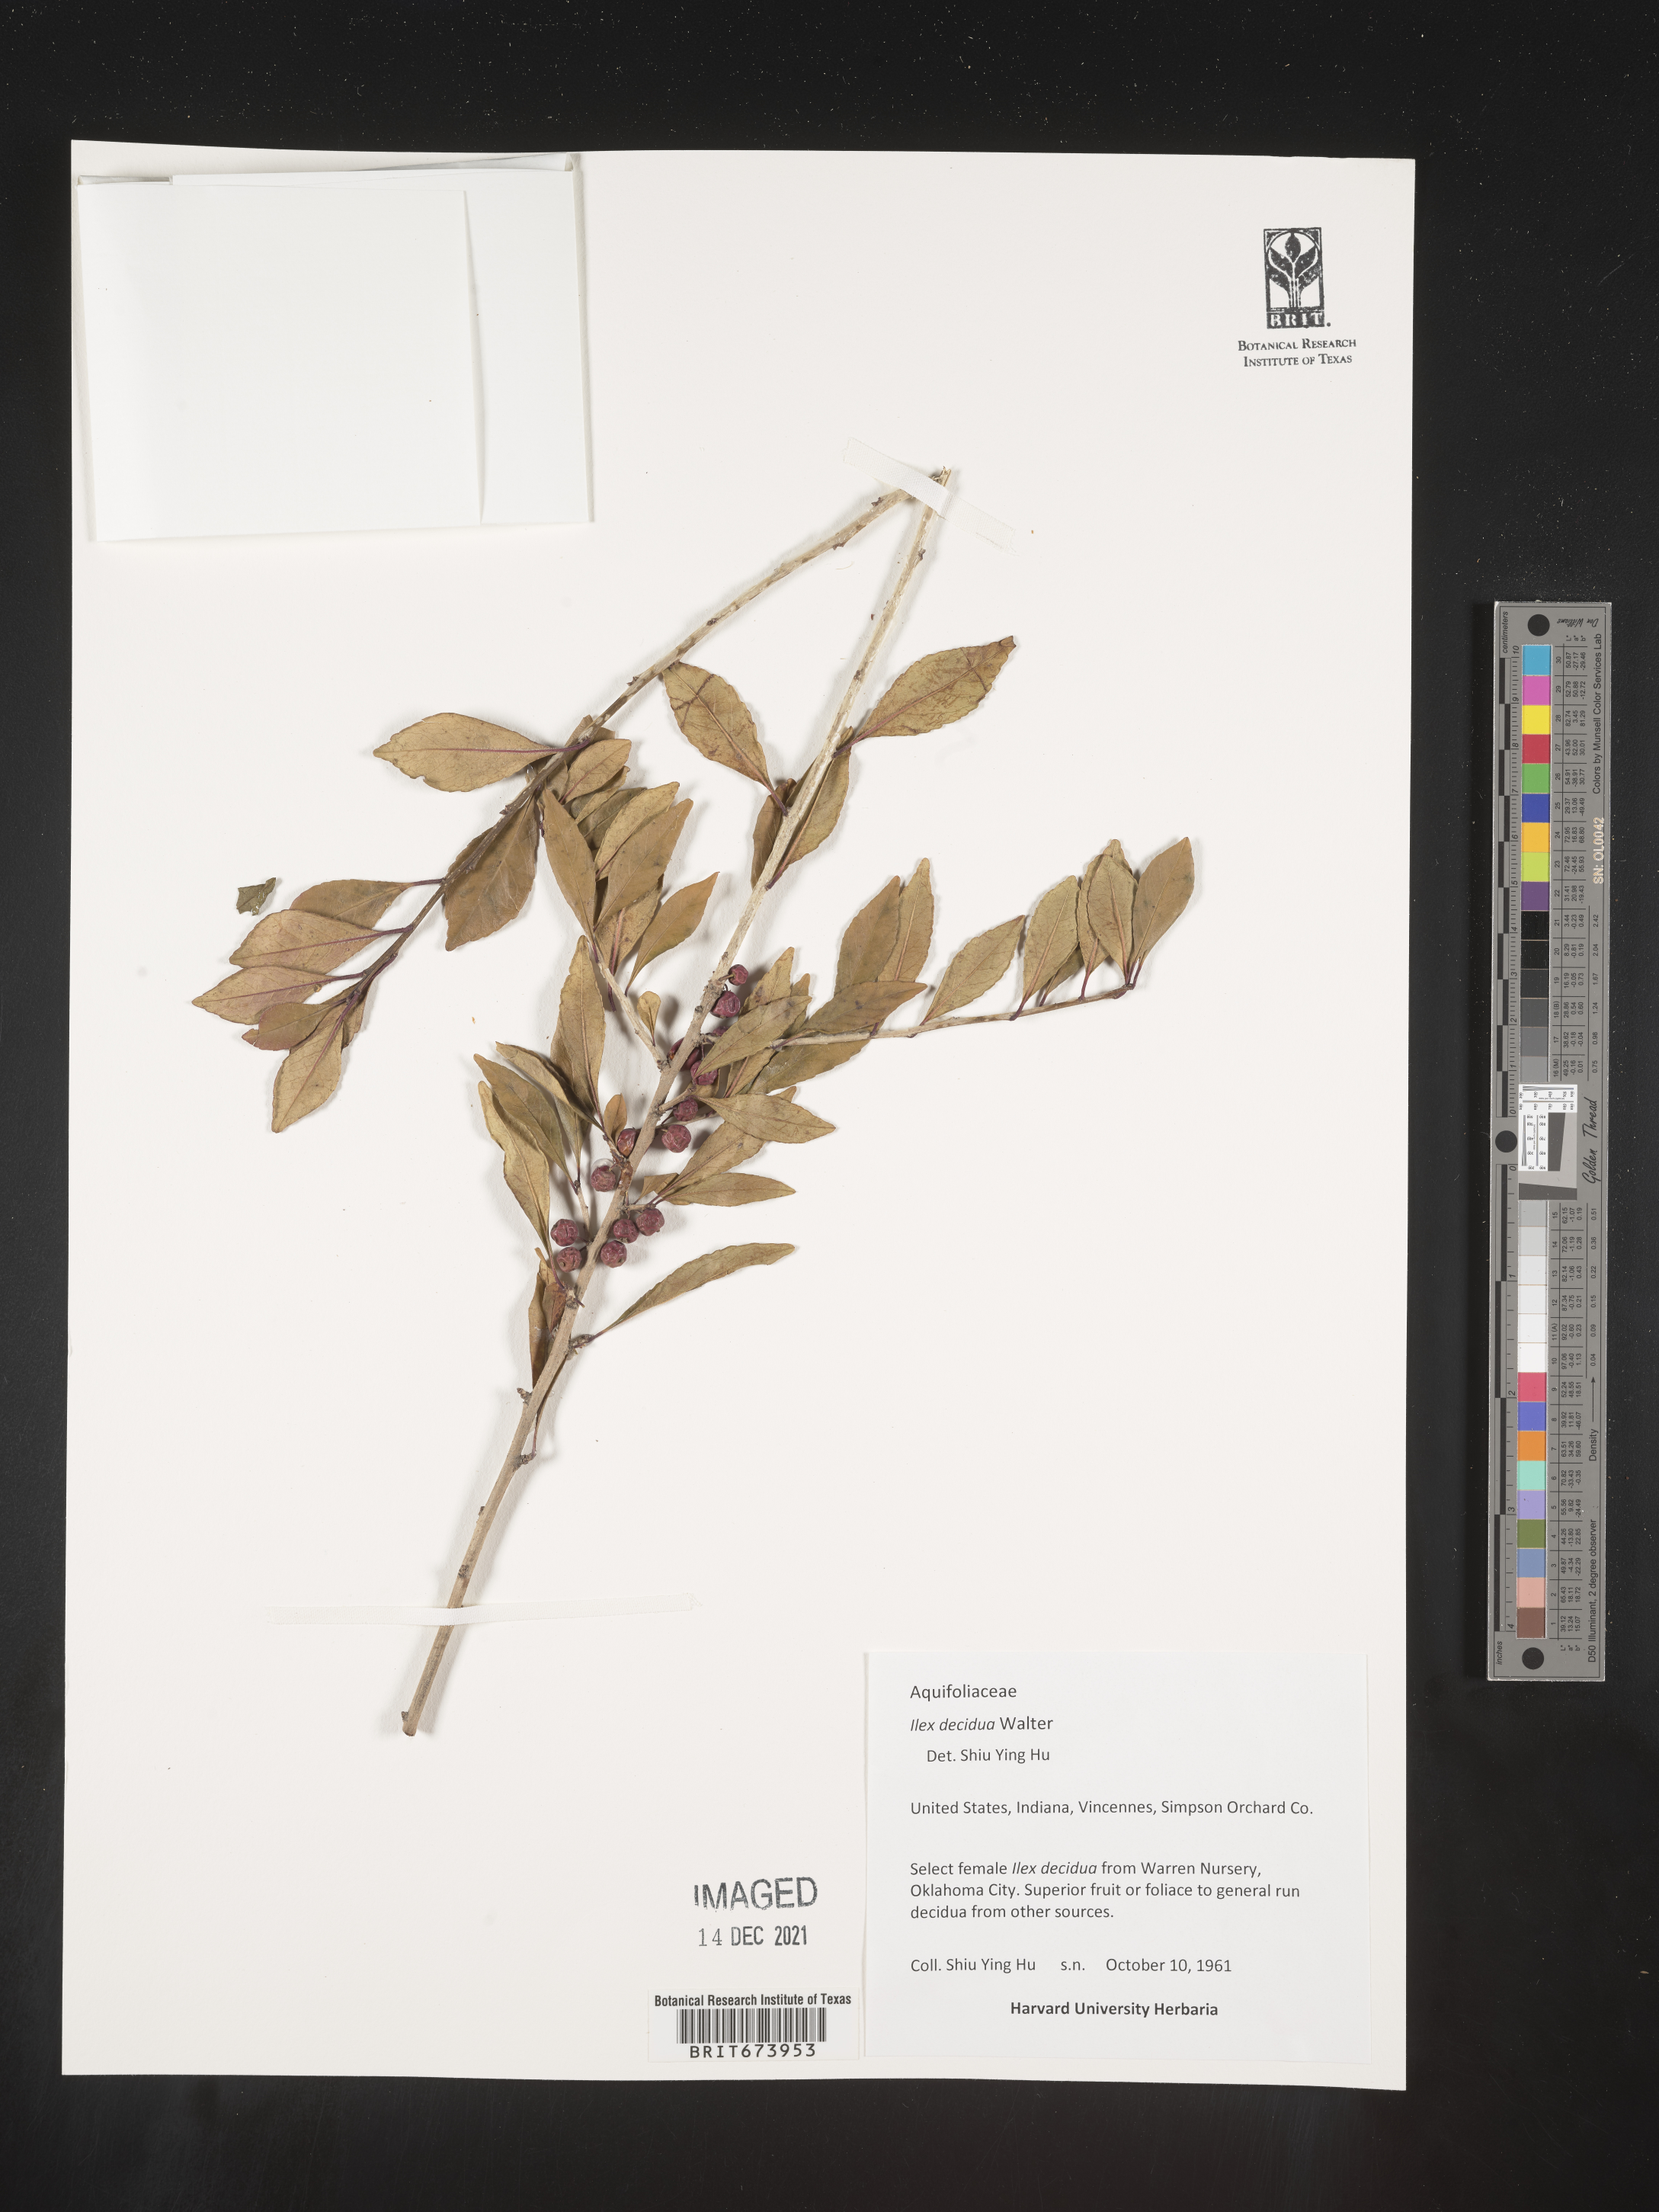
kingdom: Plantae
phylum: Tracheophyta
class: Magnoliopsida
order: Aquifoliales
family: Aquifoliaceae
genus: Ilex
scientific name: Ilex decidua
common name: Possum-haw
